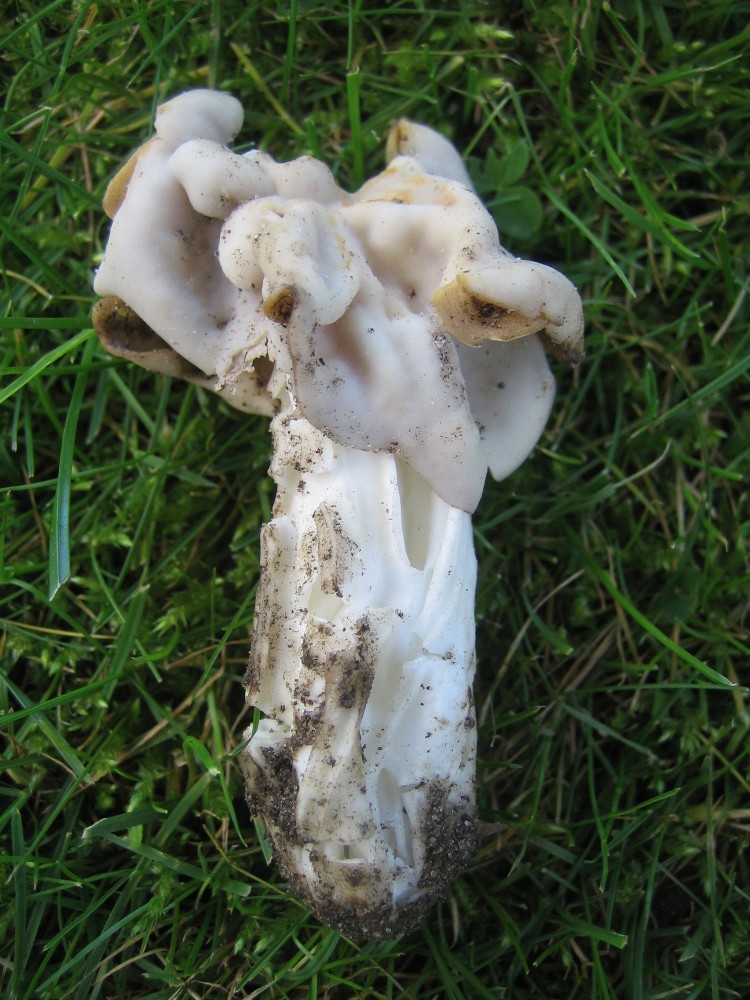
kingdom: Fungi
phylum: Ascomycota
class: Pezizomycetes
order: Pezizales
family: Helvellaceae
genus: Helvella
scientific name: Helvella crispa
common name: kruset foldhat
